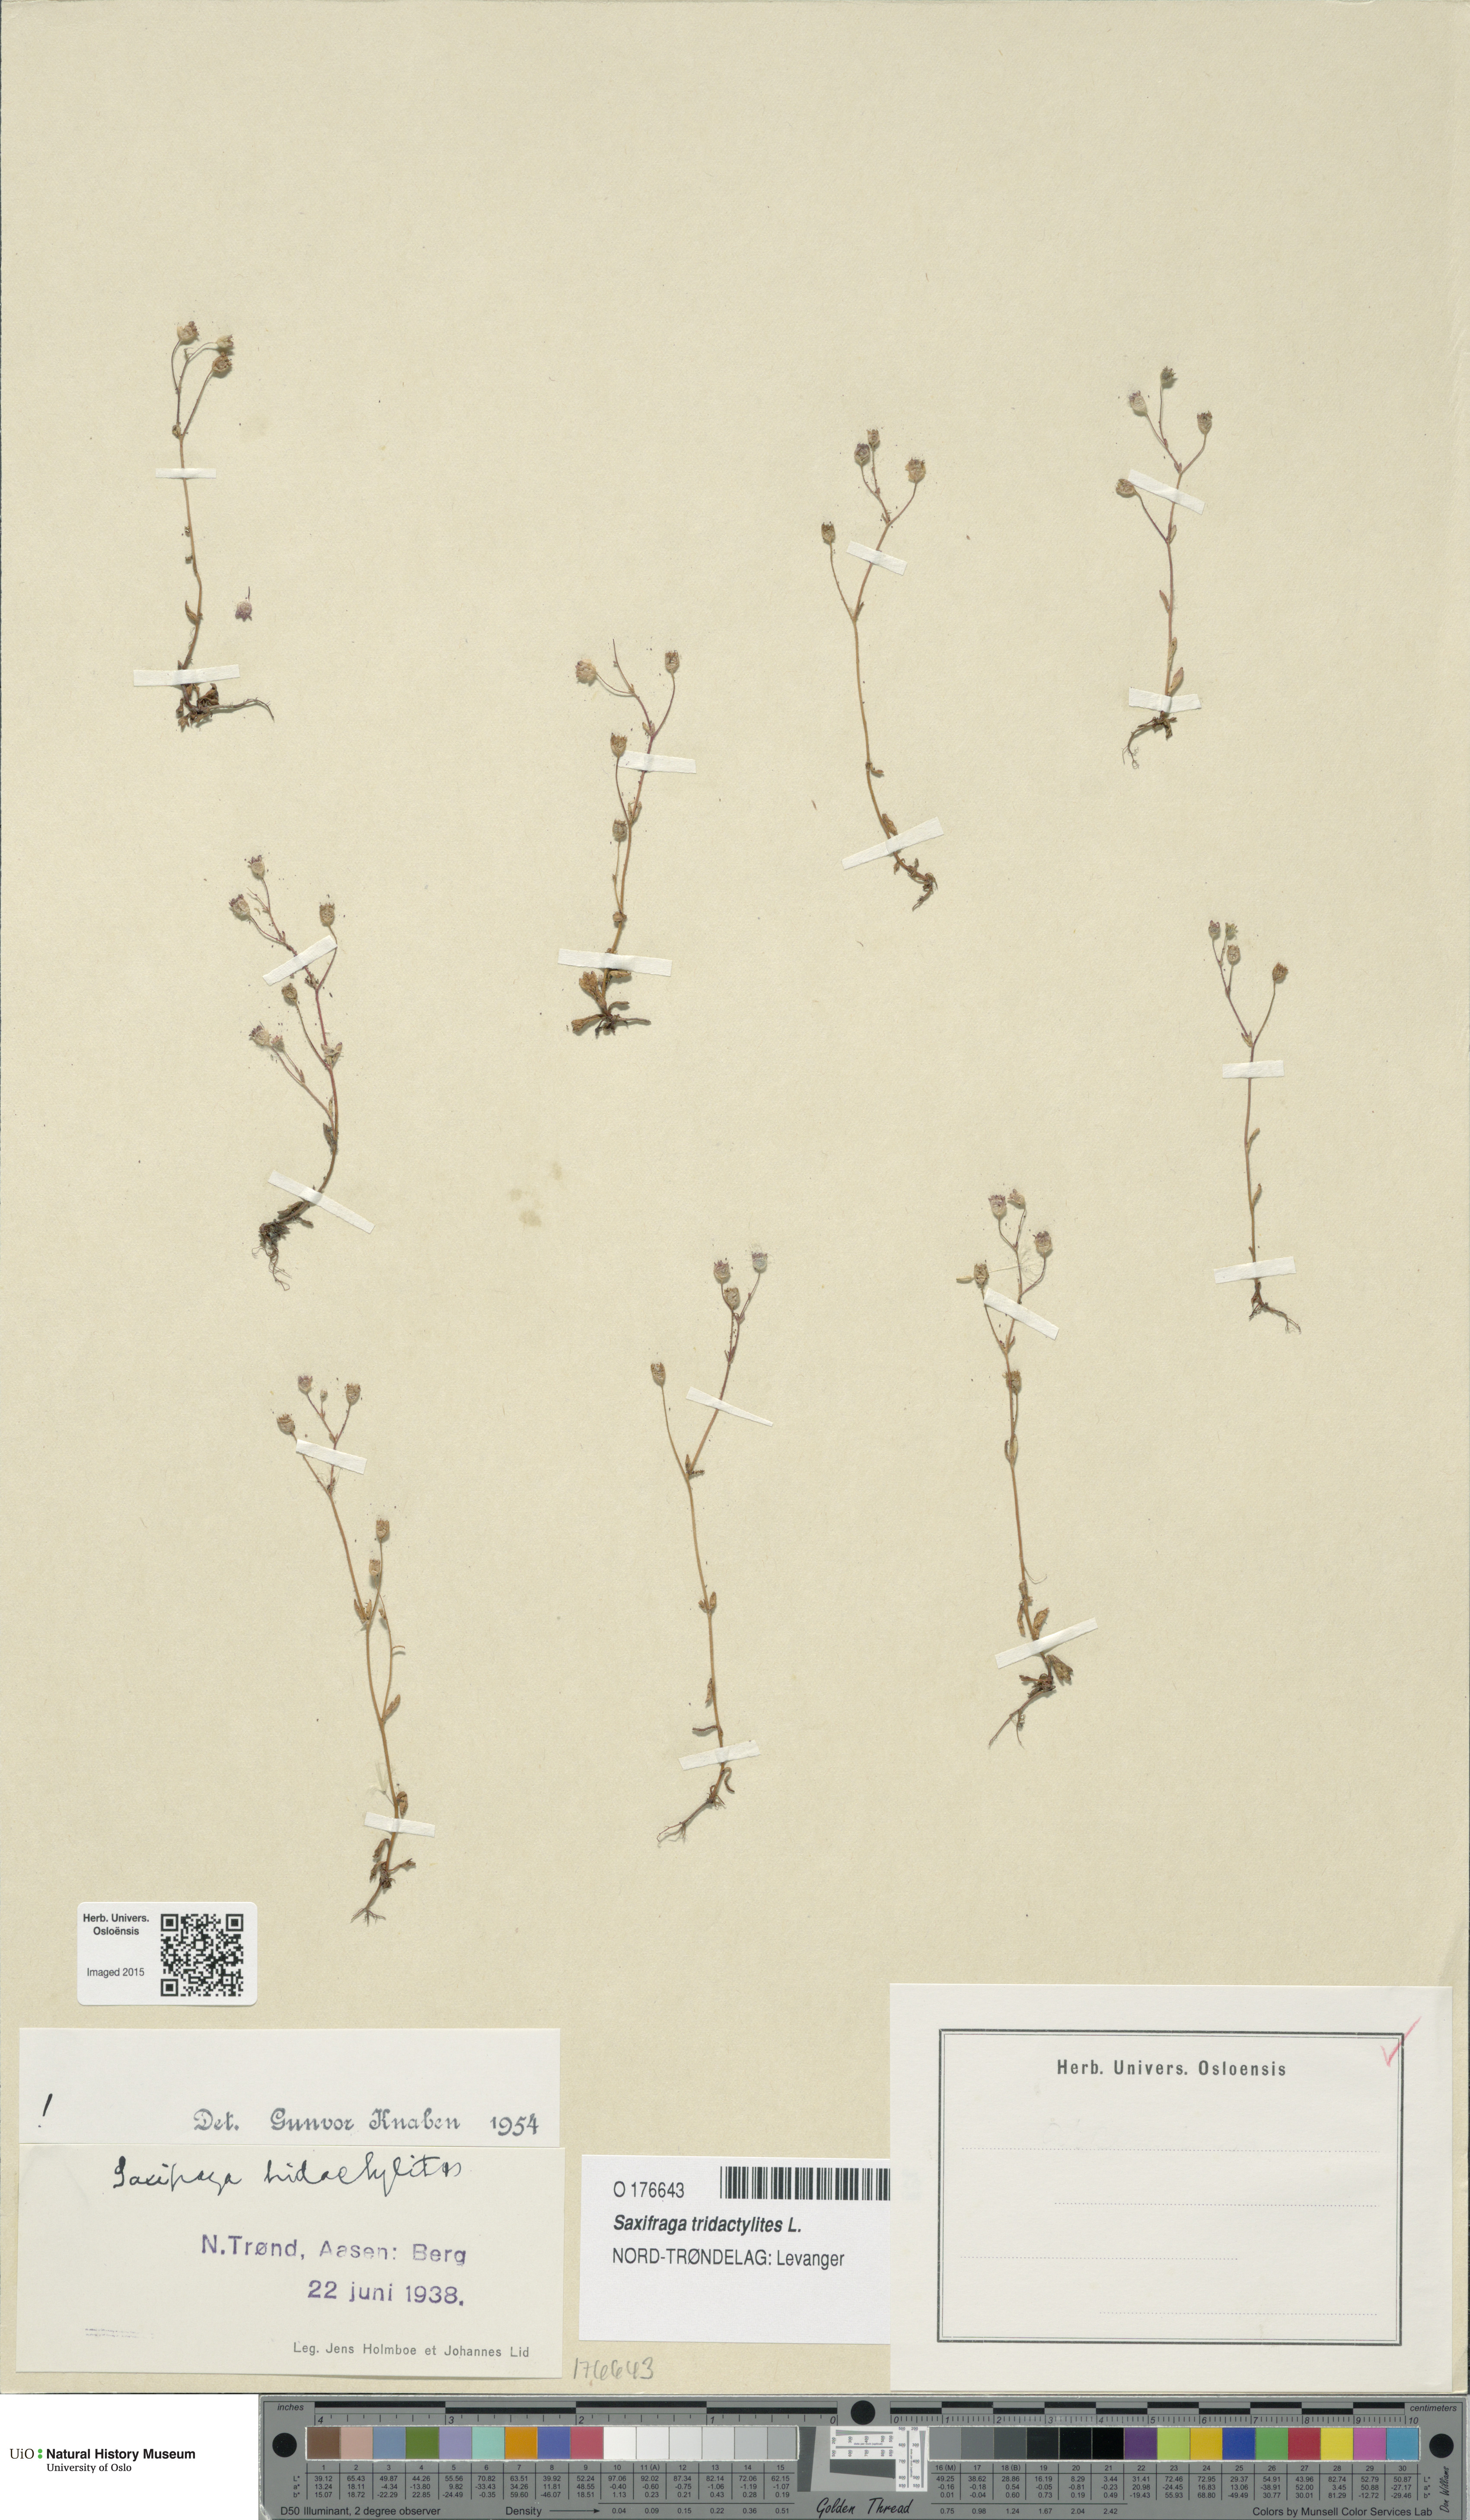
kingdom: Plantae
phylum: Tracheophyta
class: Magnoliopsida
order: Saxifragales
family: Saxifragaceae
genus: Saxifraga
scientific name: Saxifraga tridactylites
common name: Rue-leaved saxifrage
